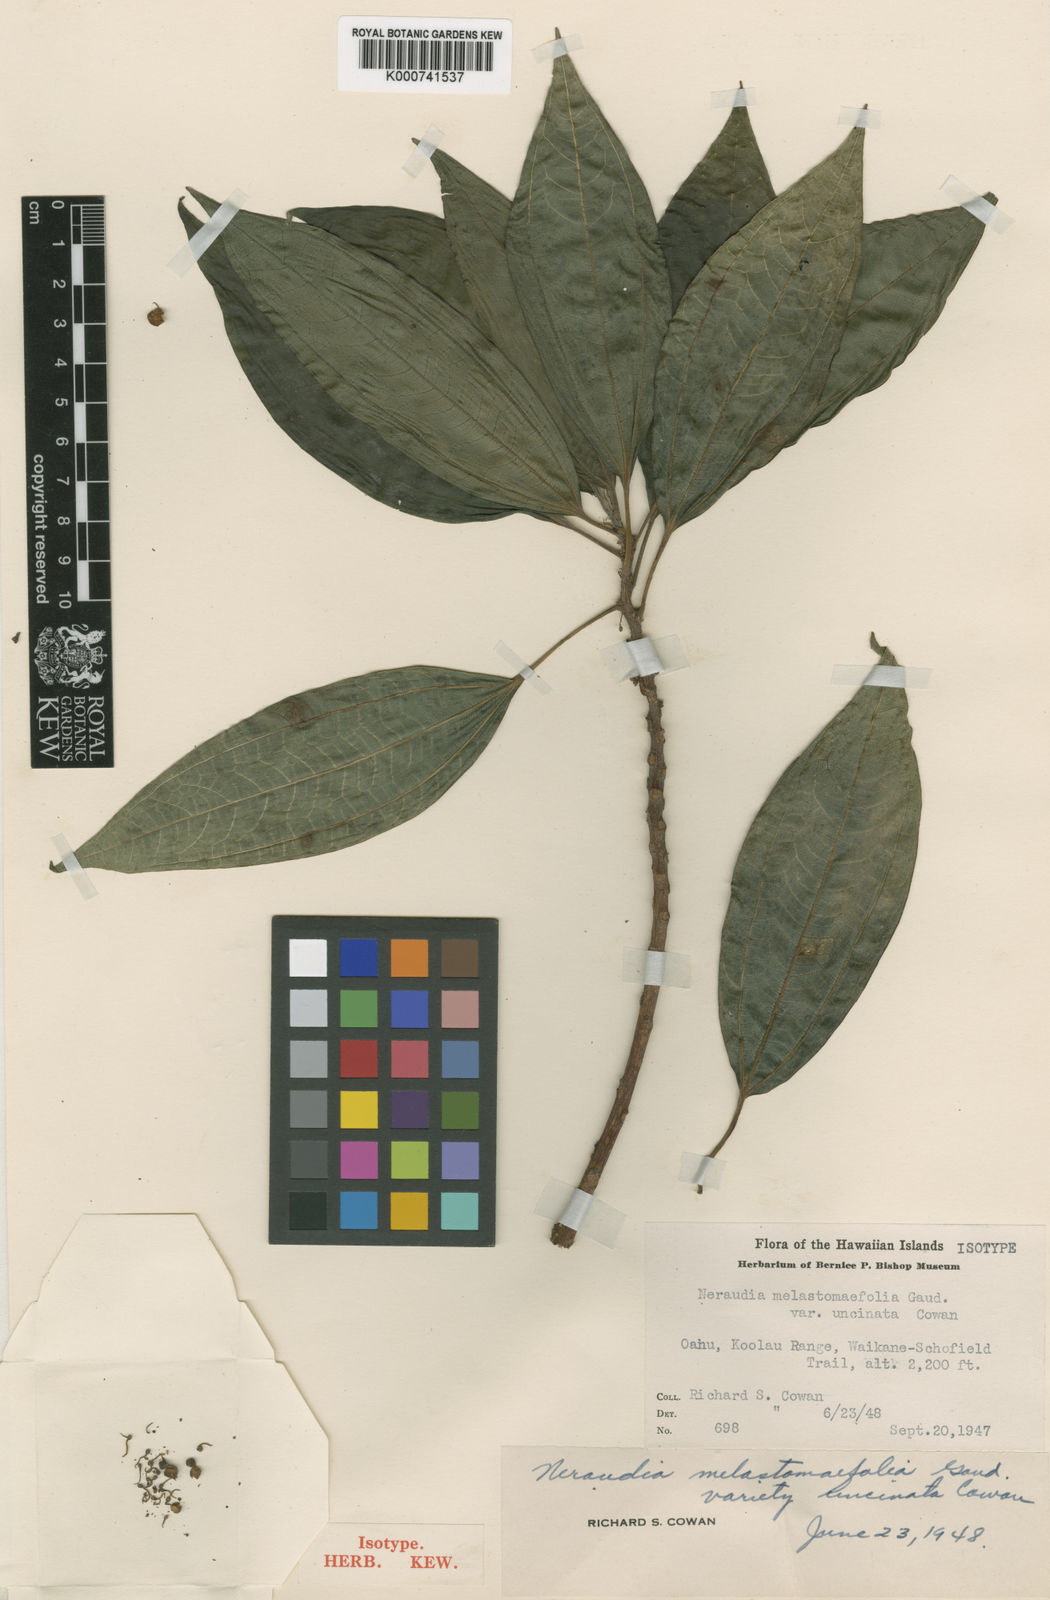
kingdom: Plantae
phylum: Tracheophyta
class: Magnoliopsida
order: Rosales
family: Urticaceae
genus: Neraudia
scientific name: Neraudia melastomifolia
